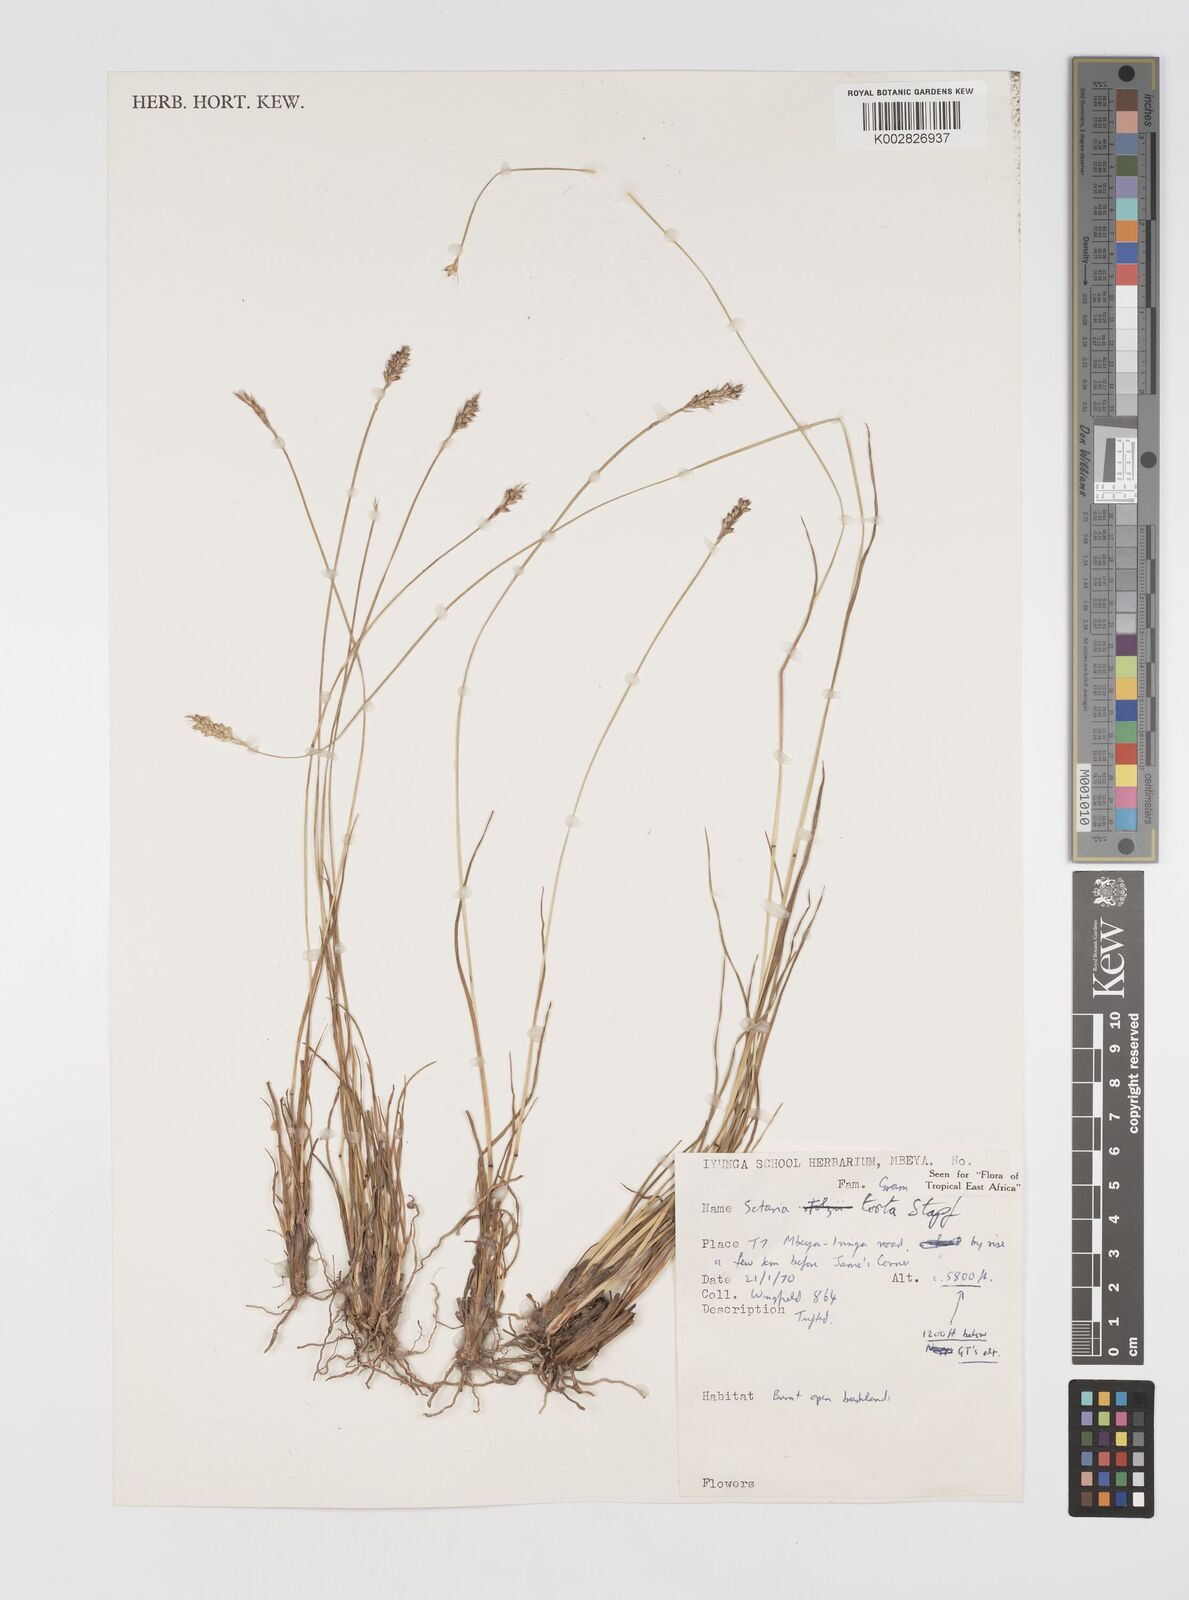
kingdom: Plantae
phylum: Tracheophyta
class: Liliopsida
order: Poales
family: Poaceae
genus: Setaria
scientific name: Setaria sphacelata
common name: African bristlegrass
